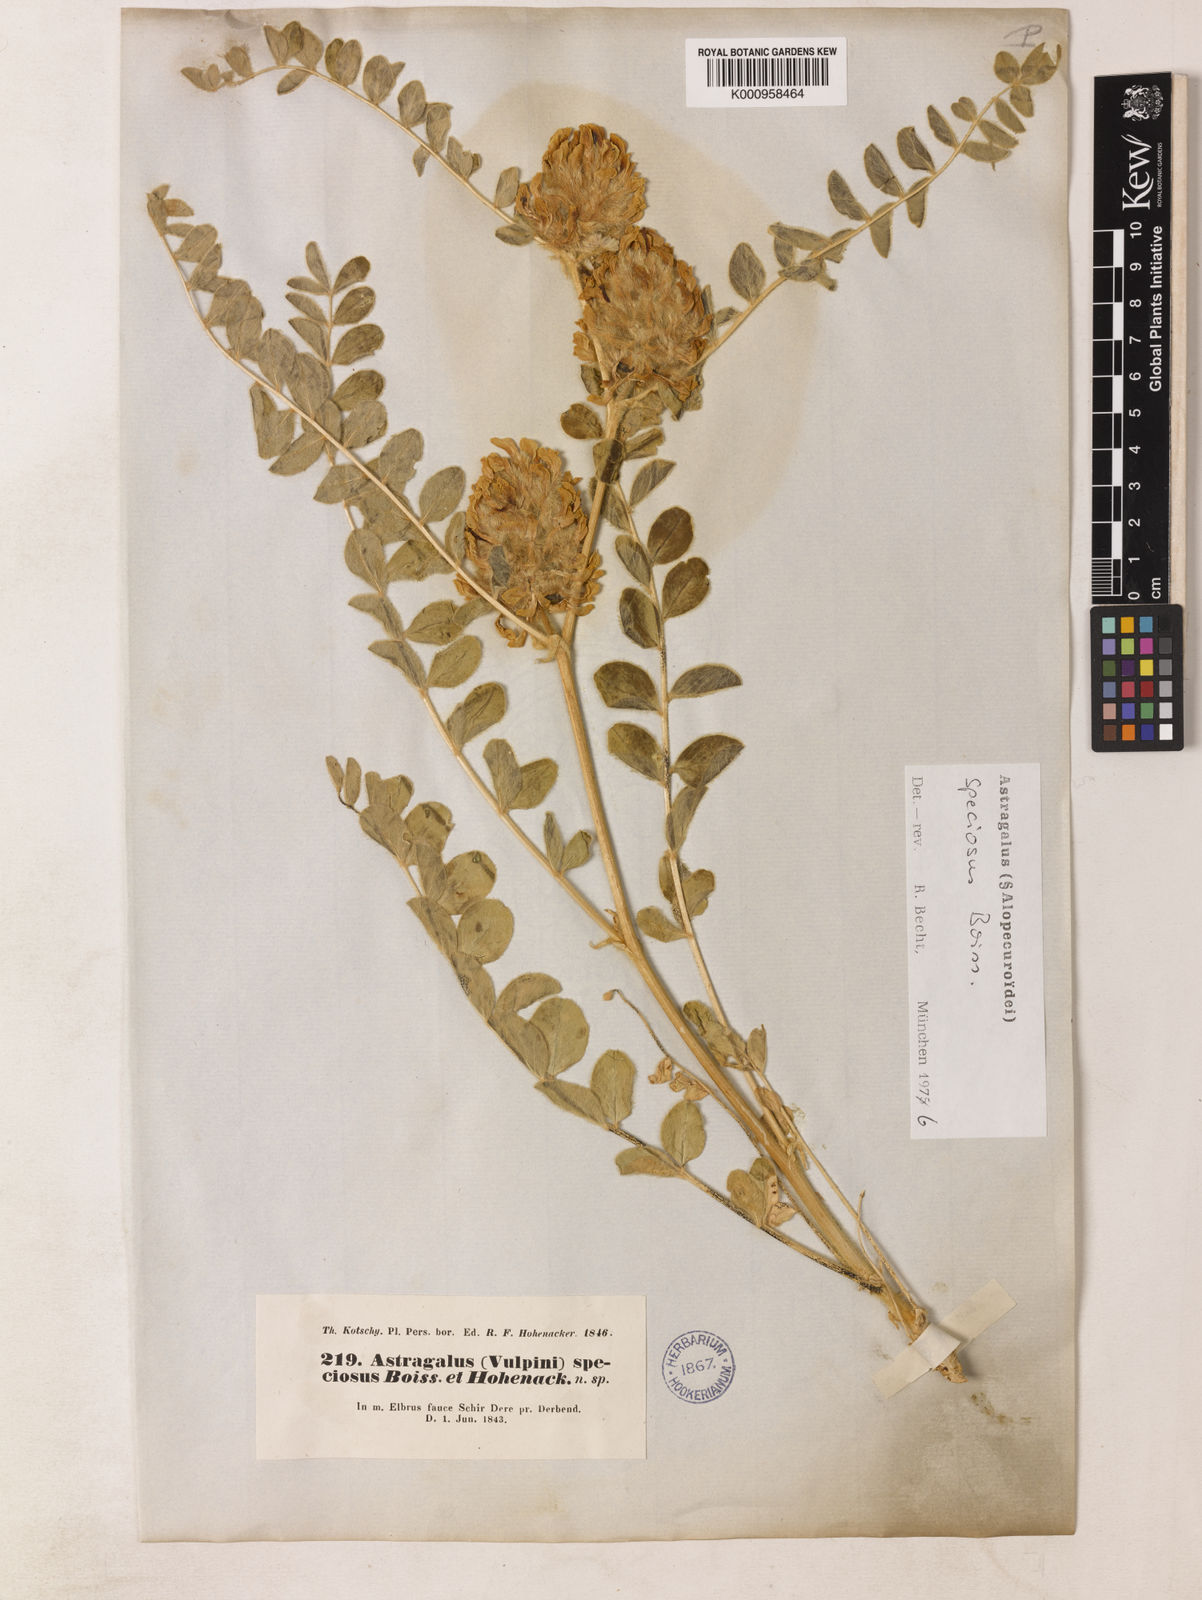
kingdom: Plantae
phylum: Tracheophyta
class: Magnoliopsida
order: Fabales
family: Fabaceae
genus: Astragalus
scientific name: Astragalus
